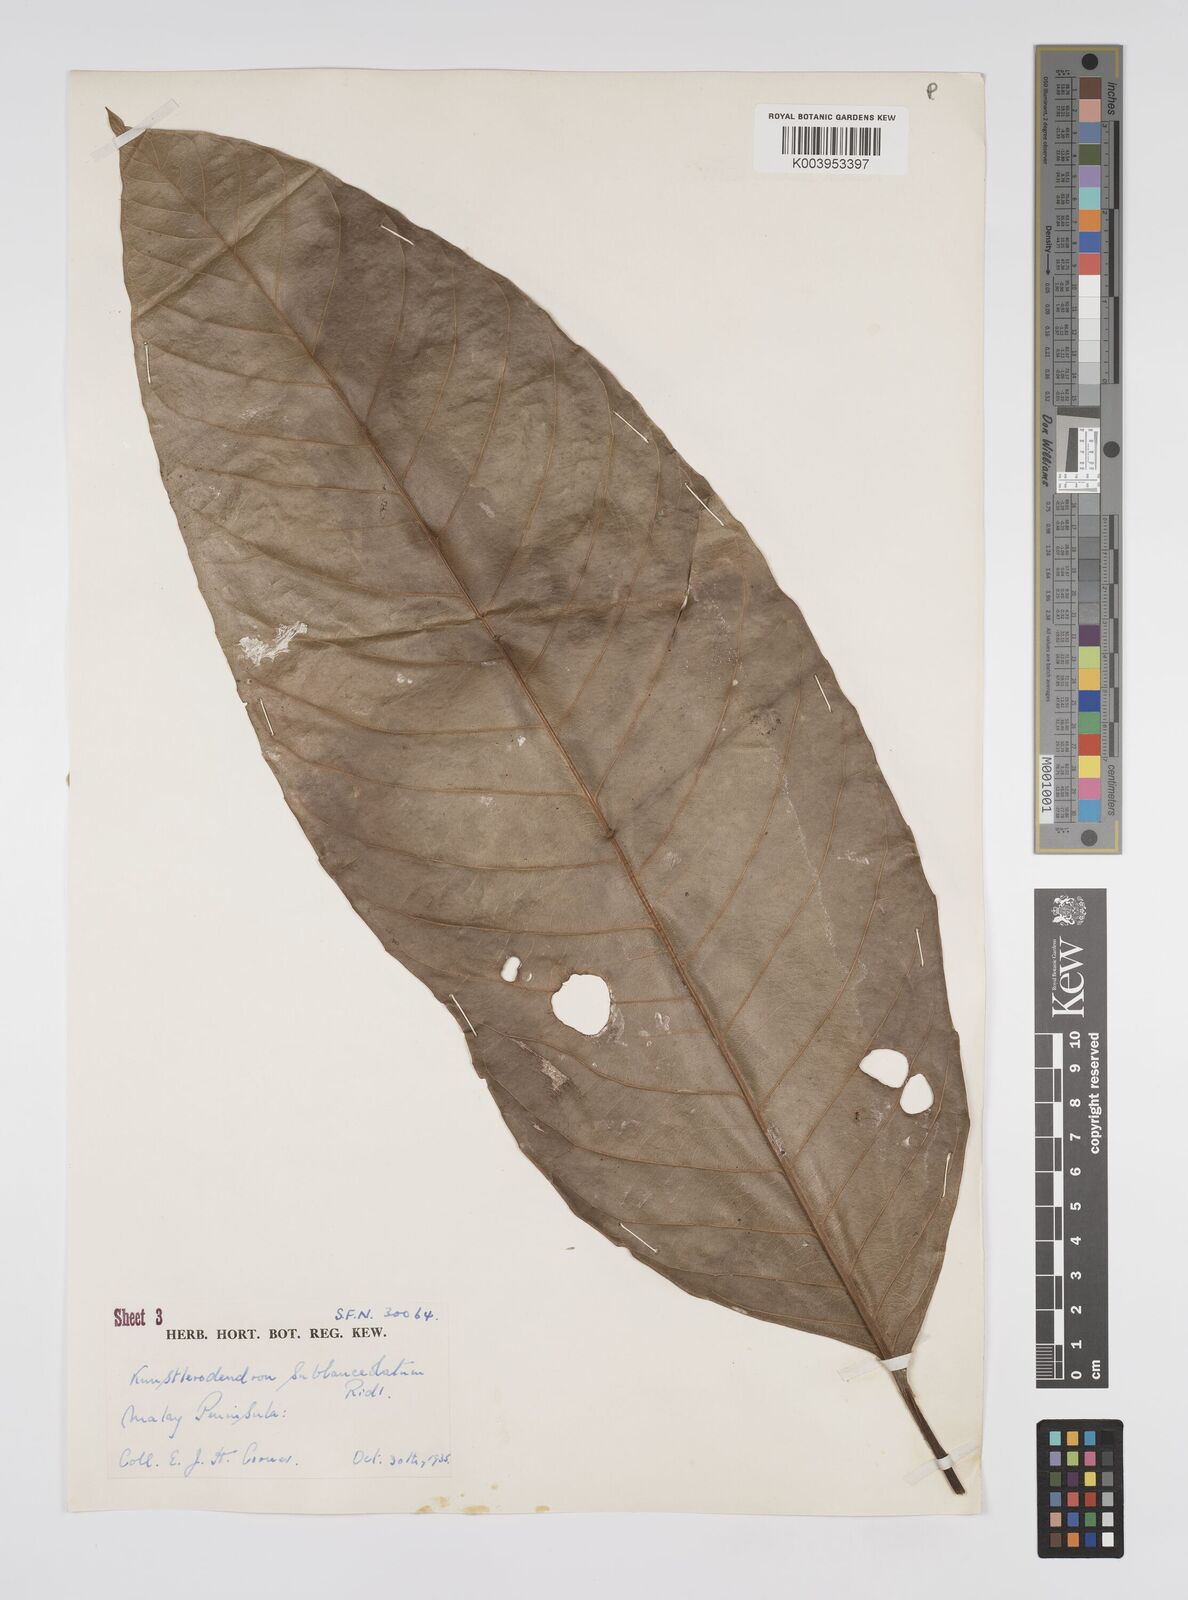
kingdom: Plantae
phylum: Tracheophyta
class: Magnoliopsida
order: Malpighiales
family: Euphorbiaceae
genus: Chondrostylis
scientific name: Chondrostylis kunstleri
